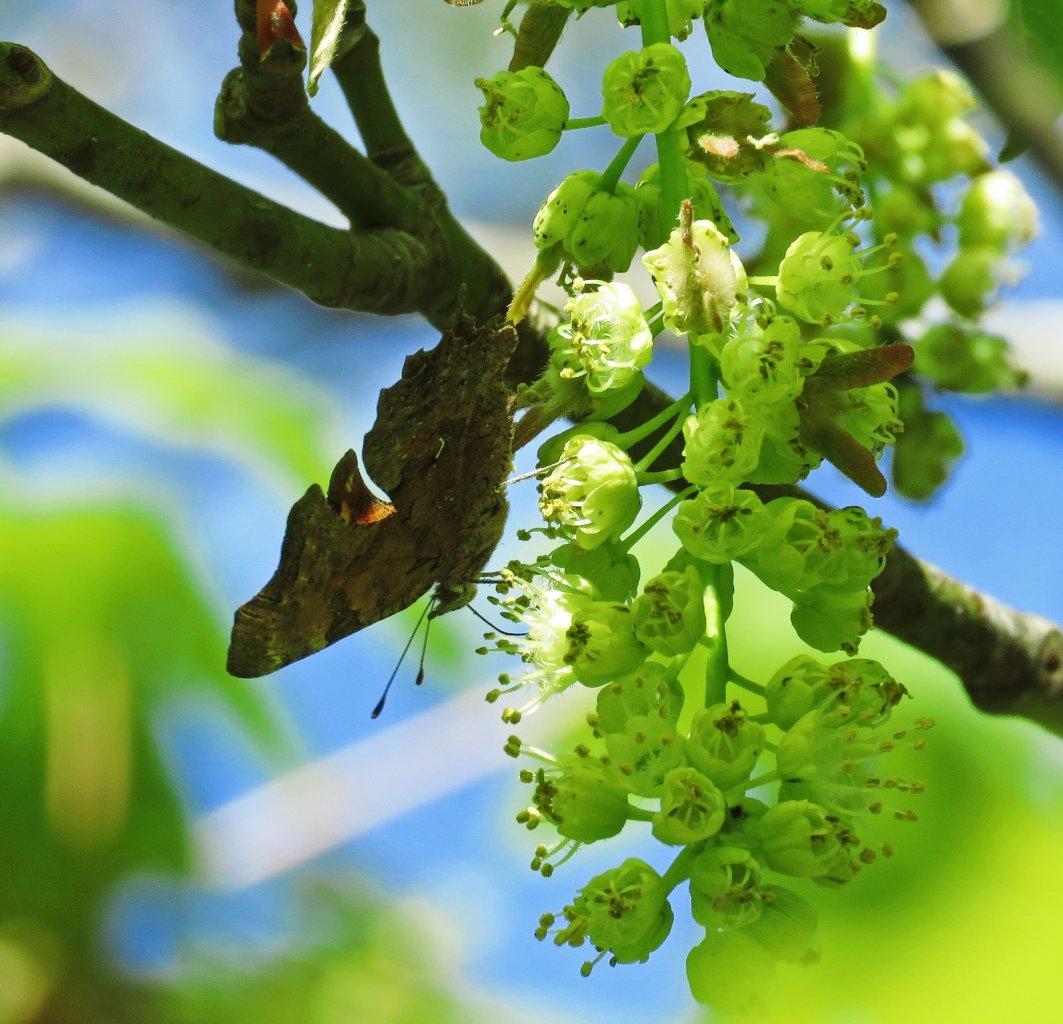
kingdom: Animalia
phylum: Arthropoda
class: Insecta
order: Lepidoptera
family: Nymphalidae
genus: Polygonia
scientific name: Polygonia faunus
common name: Green Comma
